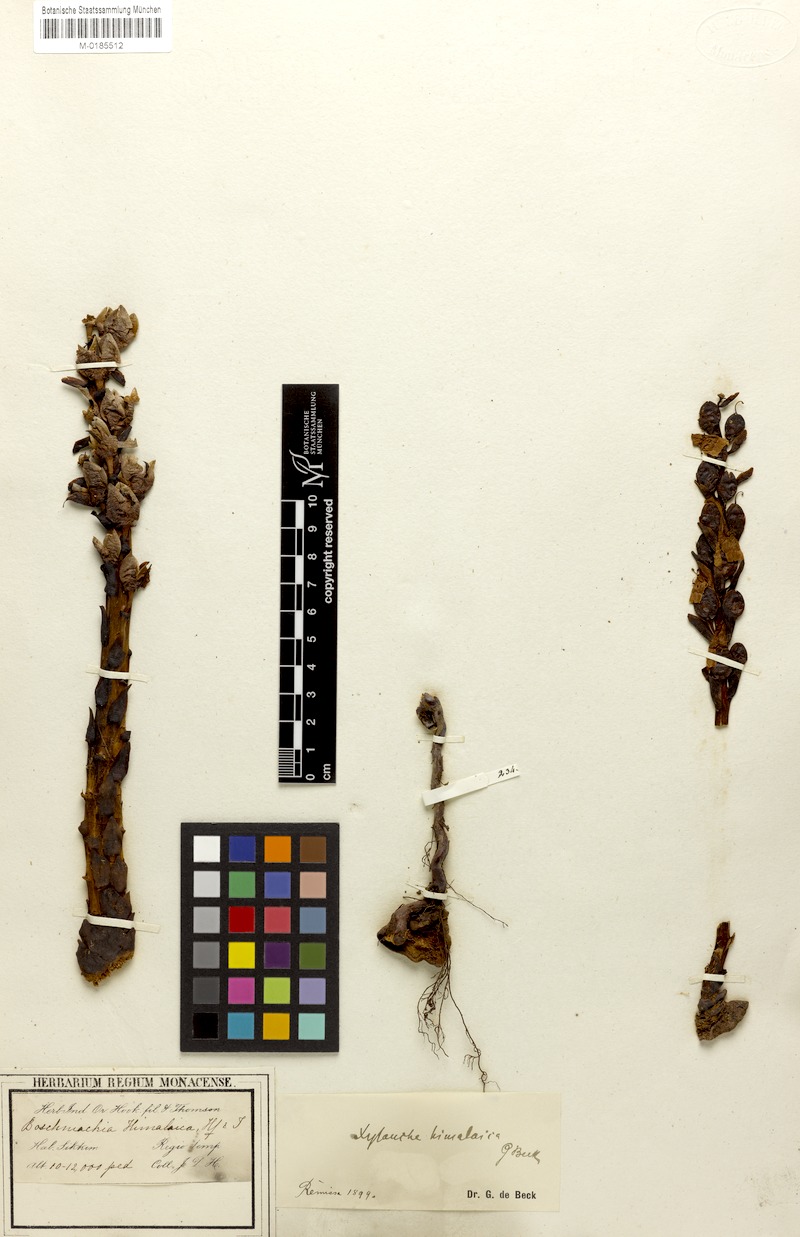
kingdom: Plantae
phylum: Tracheophyta
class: Magnoliopsida
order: Lamiales
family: Orobanchaceae
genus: Boschniakia
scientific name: Boschniakia himalaica
